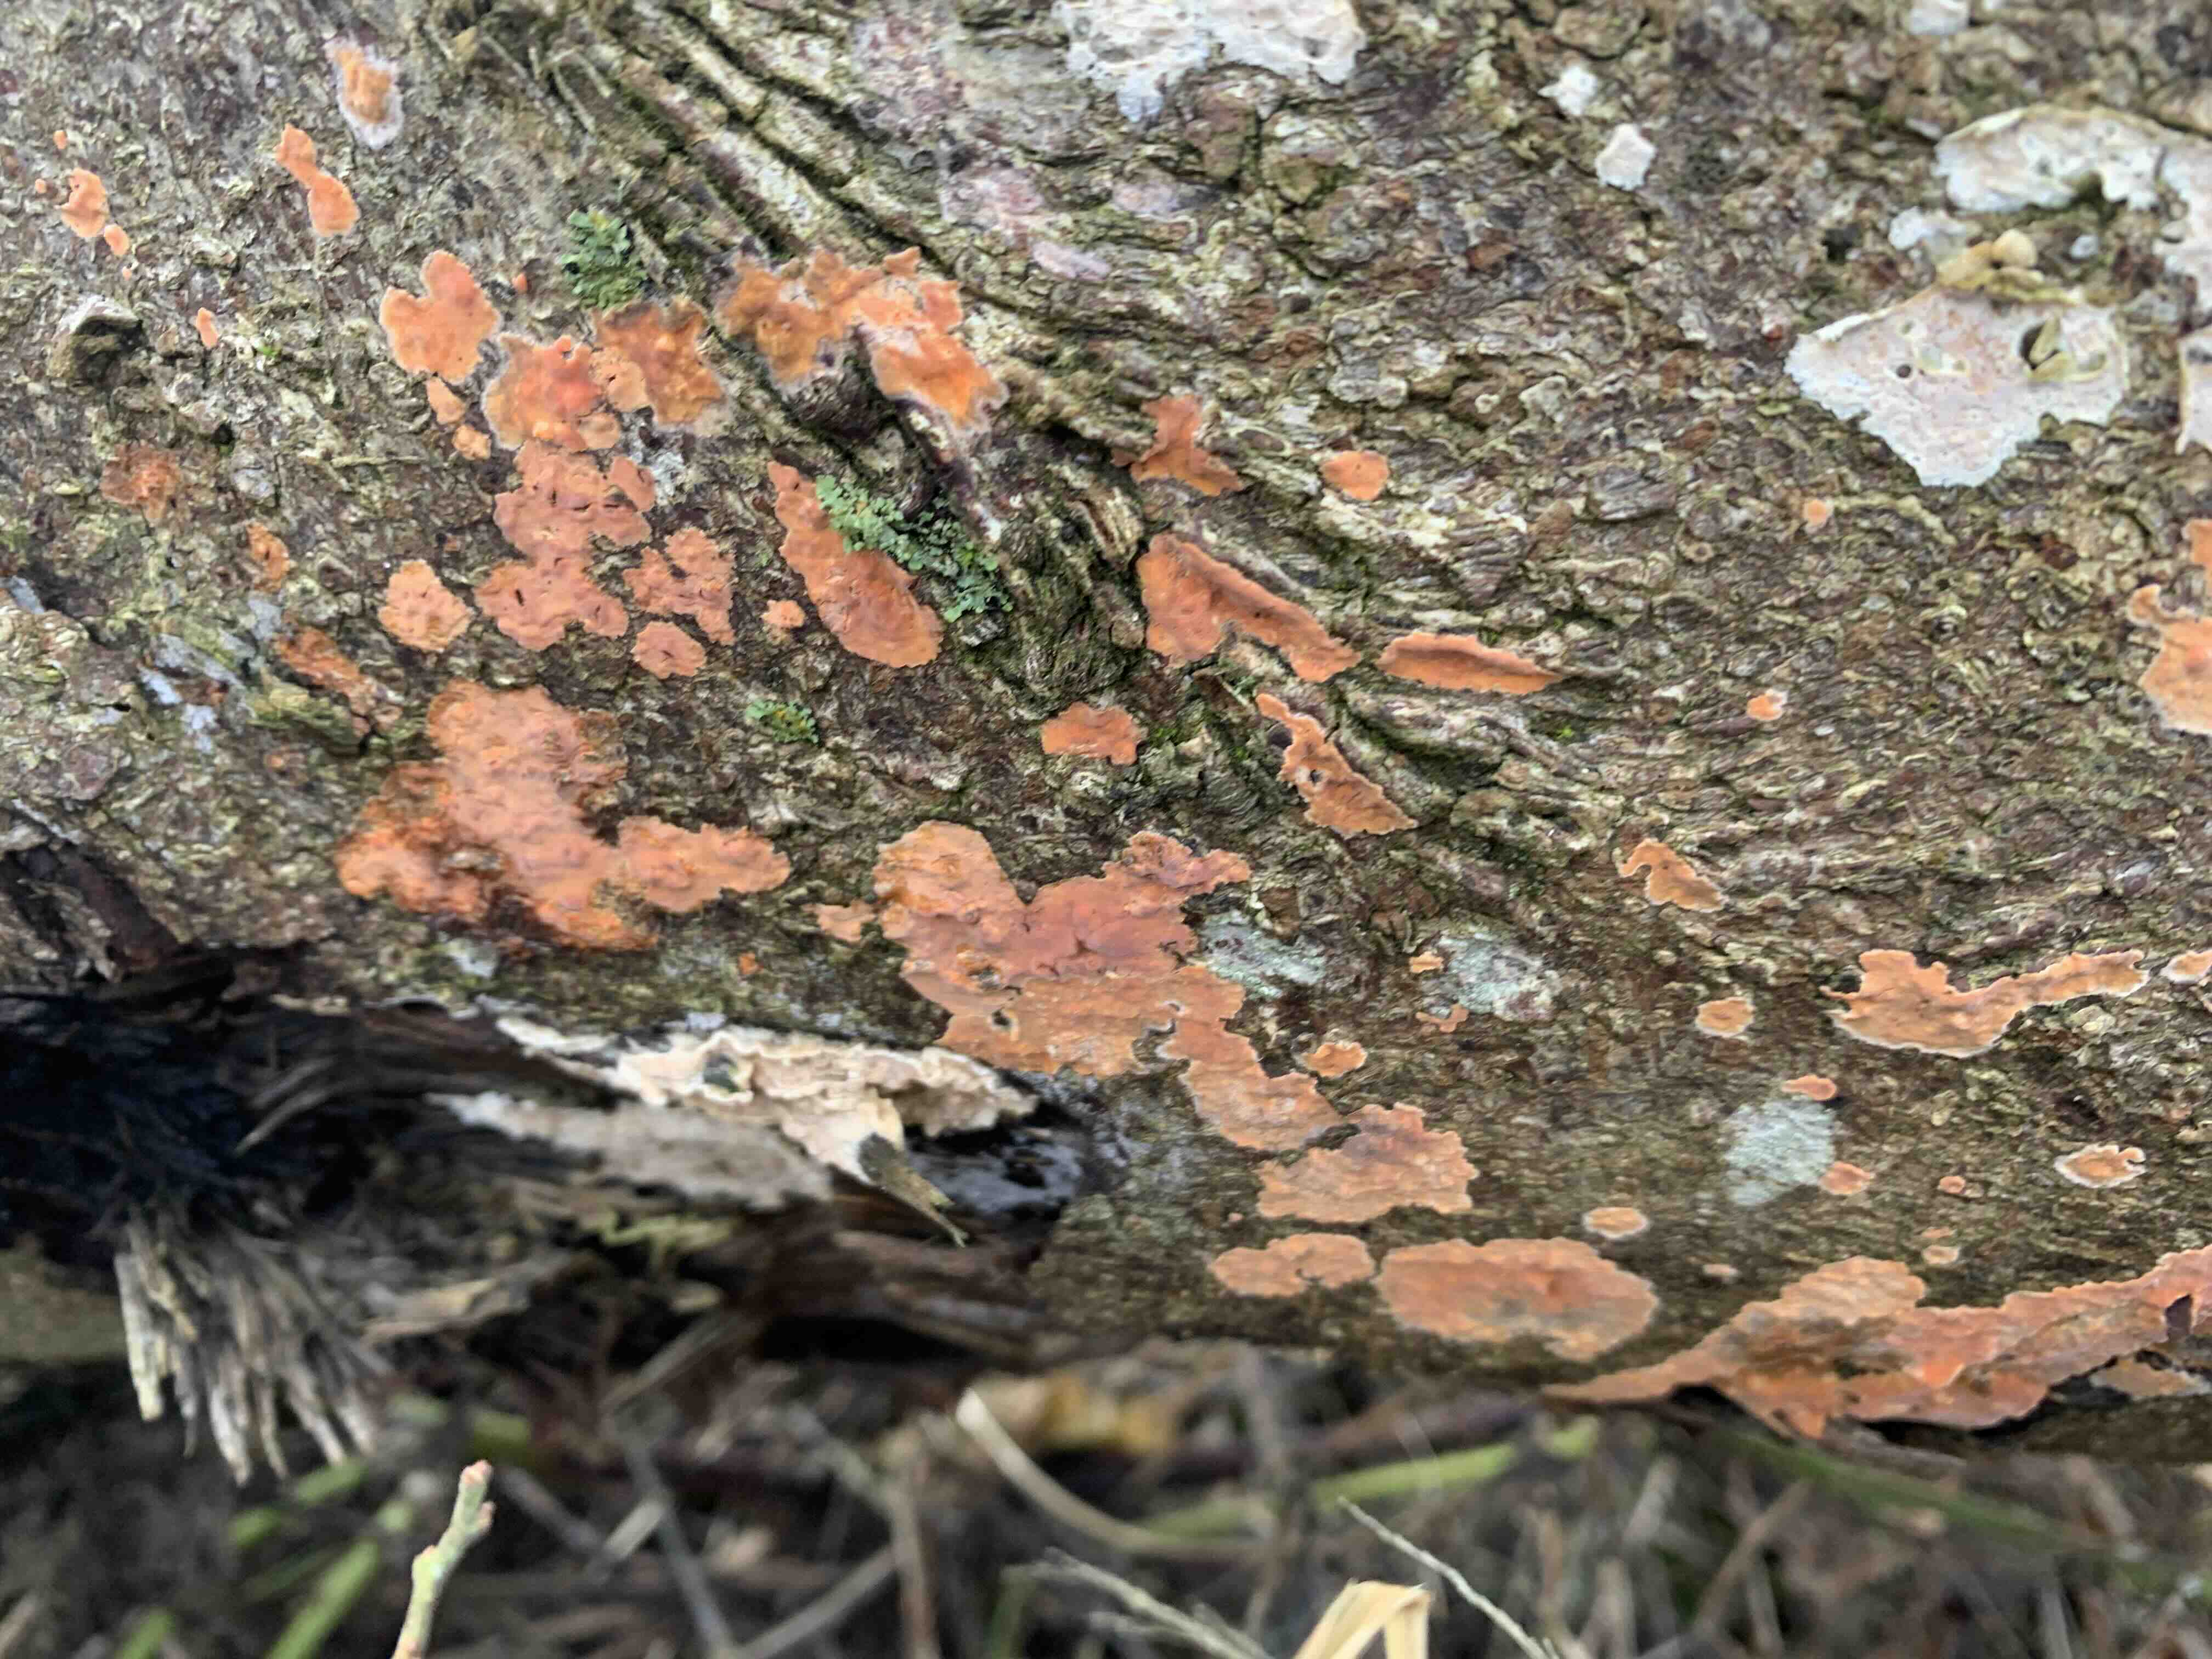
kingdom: Fungi
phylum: Basidiomycota
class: Agaricomycetes
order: Russulales
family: Peniophoraceae
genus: Peniophora
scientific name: Peniophora incarnata
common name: laksefarvet voksskind
